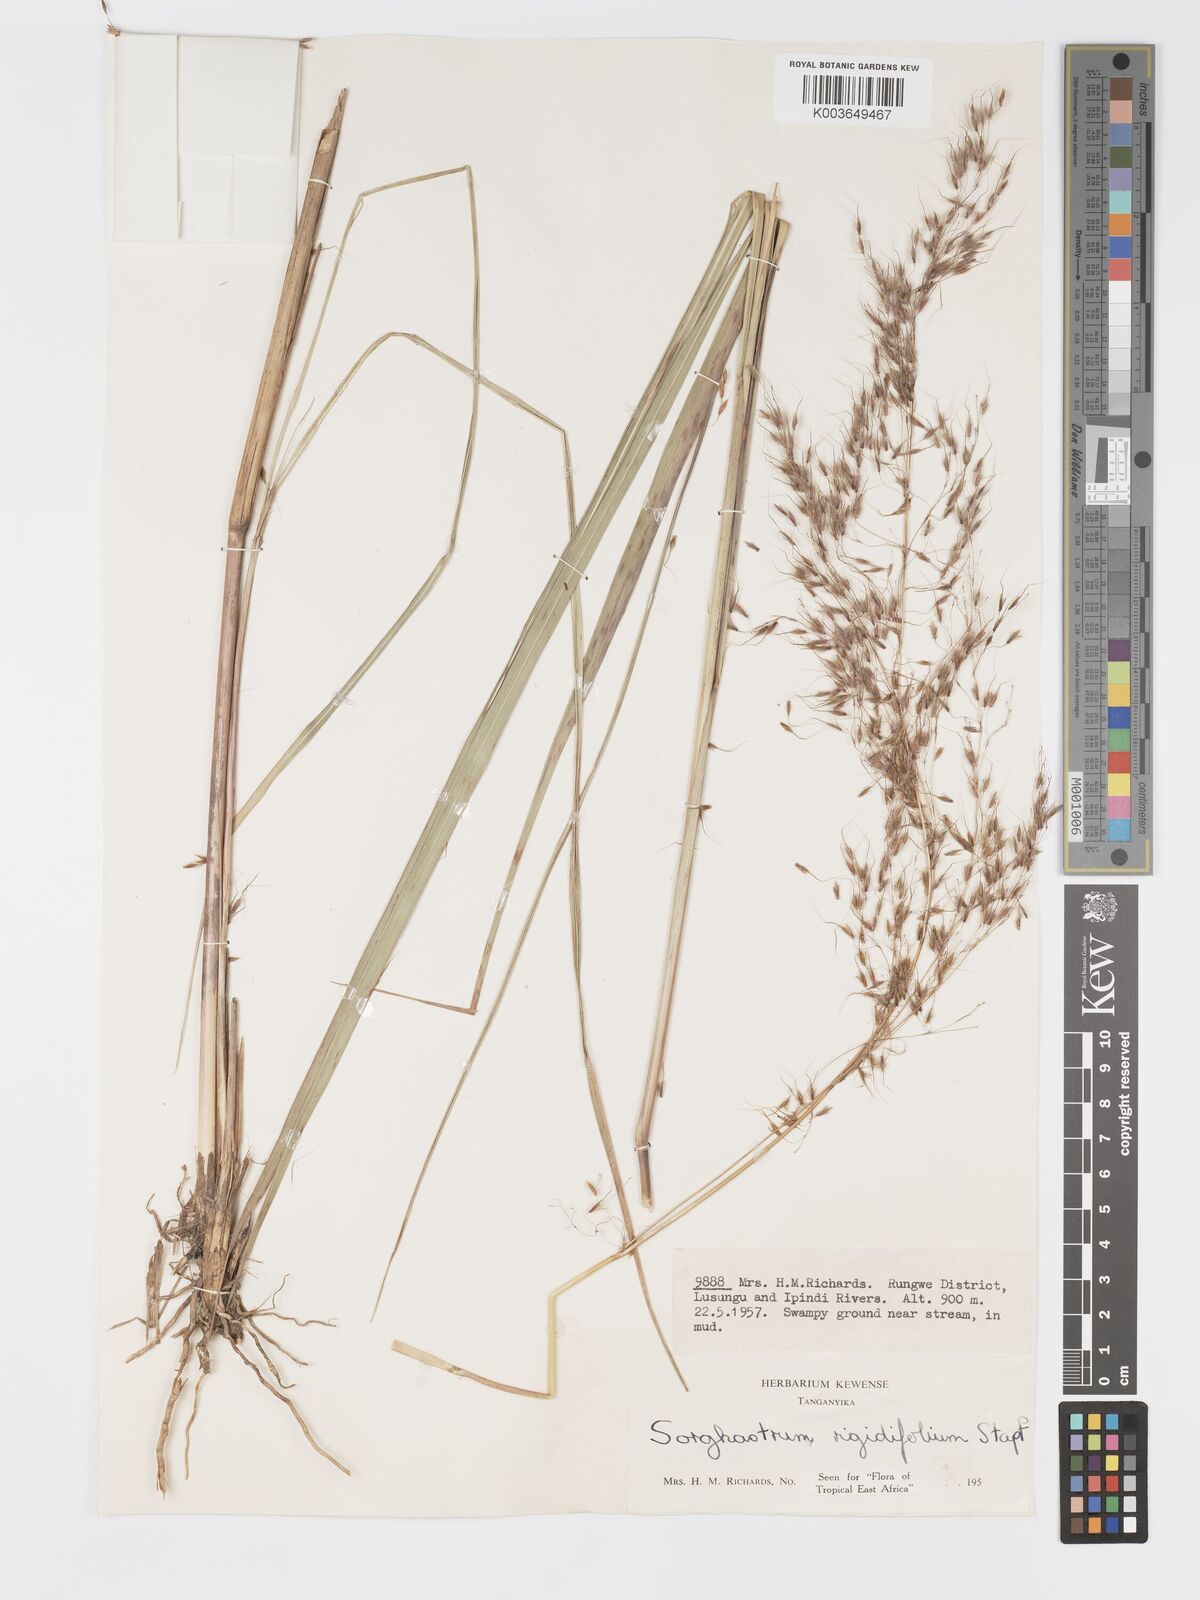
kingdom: Plantae
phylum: Tracheophyta
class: Liliopsida
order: Poales
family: Poaceae
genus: Sorghastrum
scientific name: Sorghastrum stipoides
